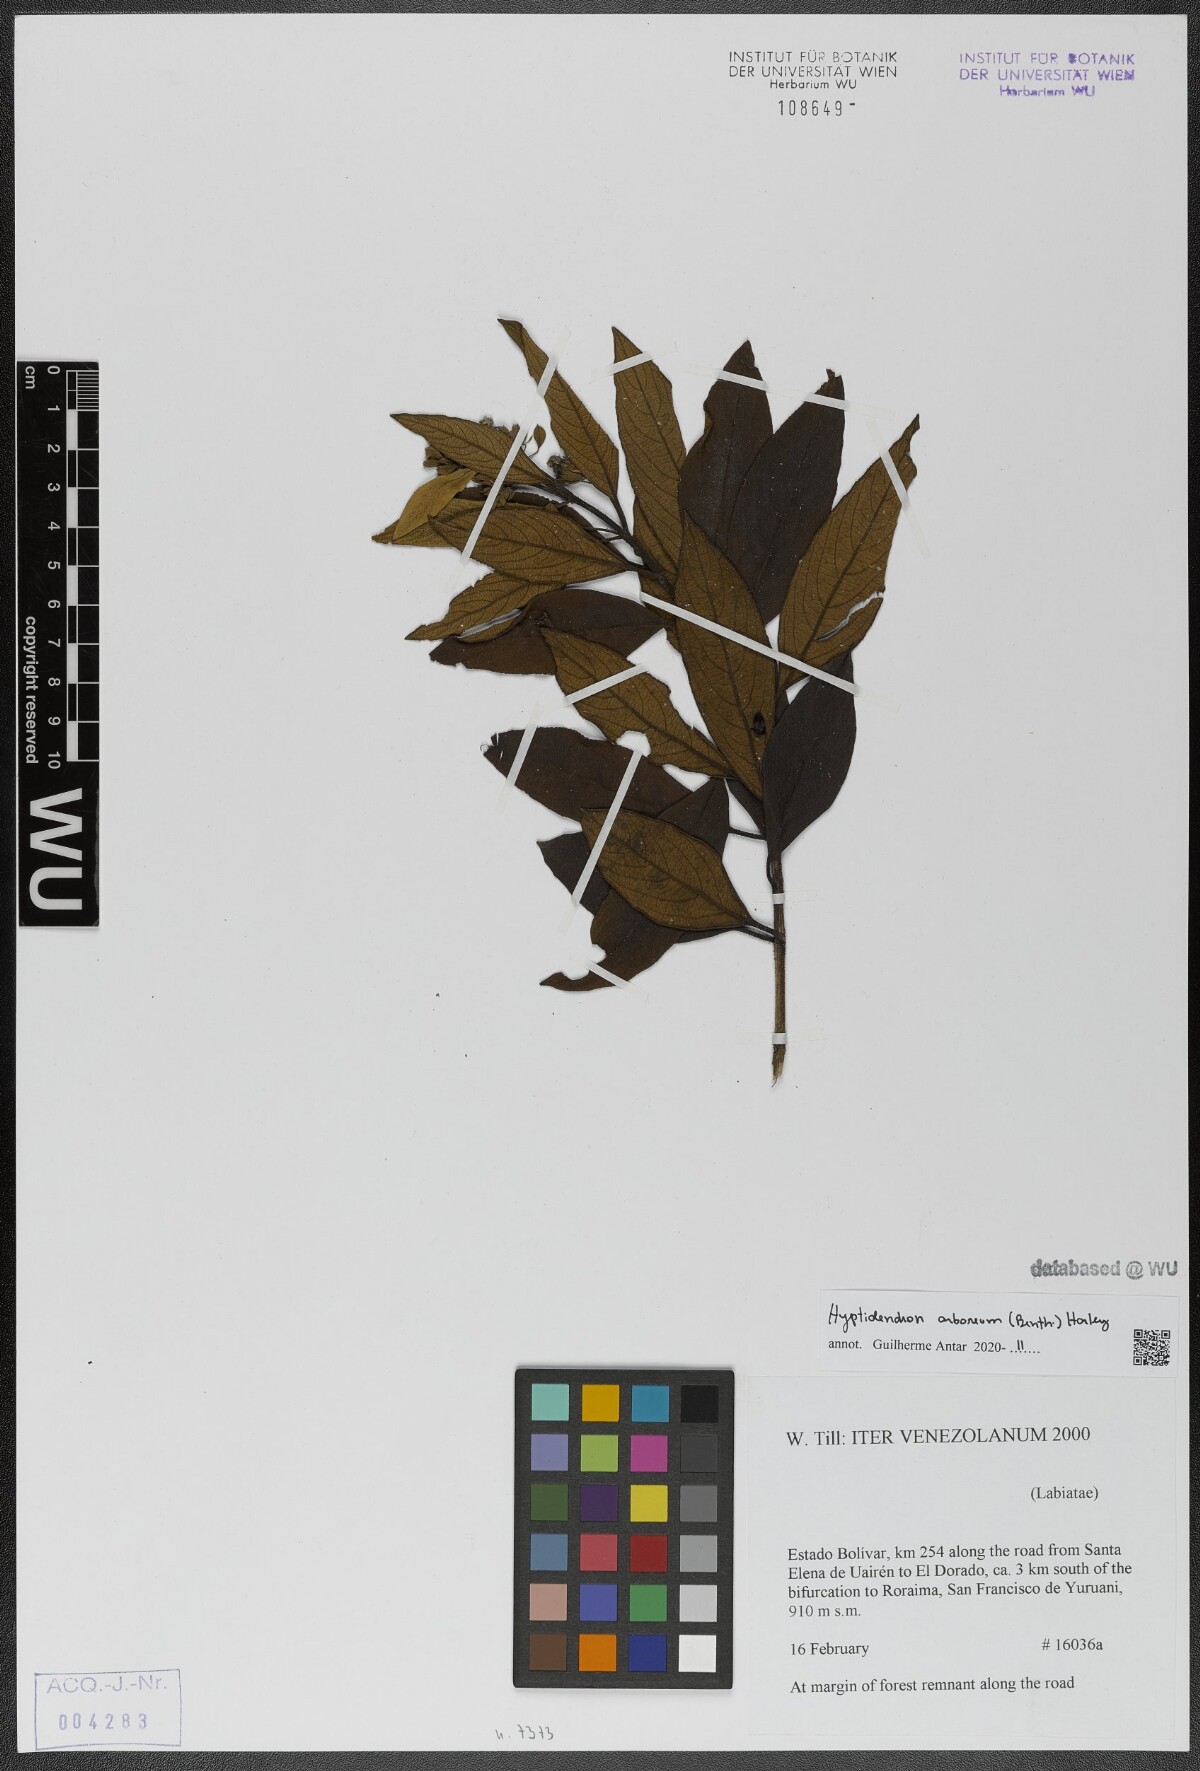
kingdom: Plantae
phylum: Tracheophyta
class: Magnoliopsida
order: Lamiales
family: Lamiaceae
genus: Hyptidendron
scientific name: Hyptidendron arboreum
